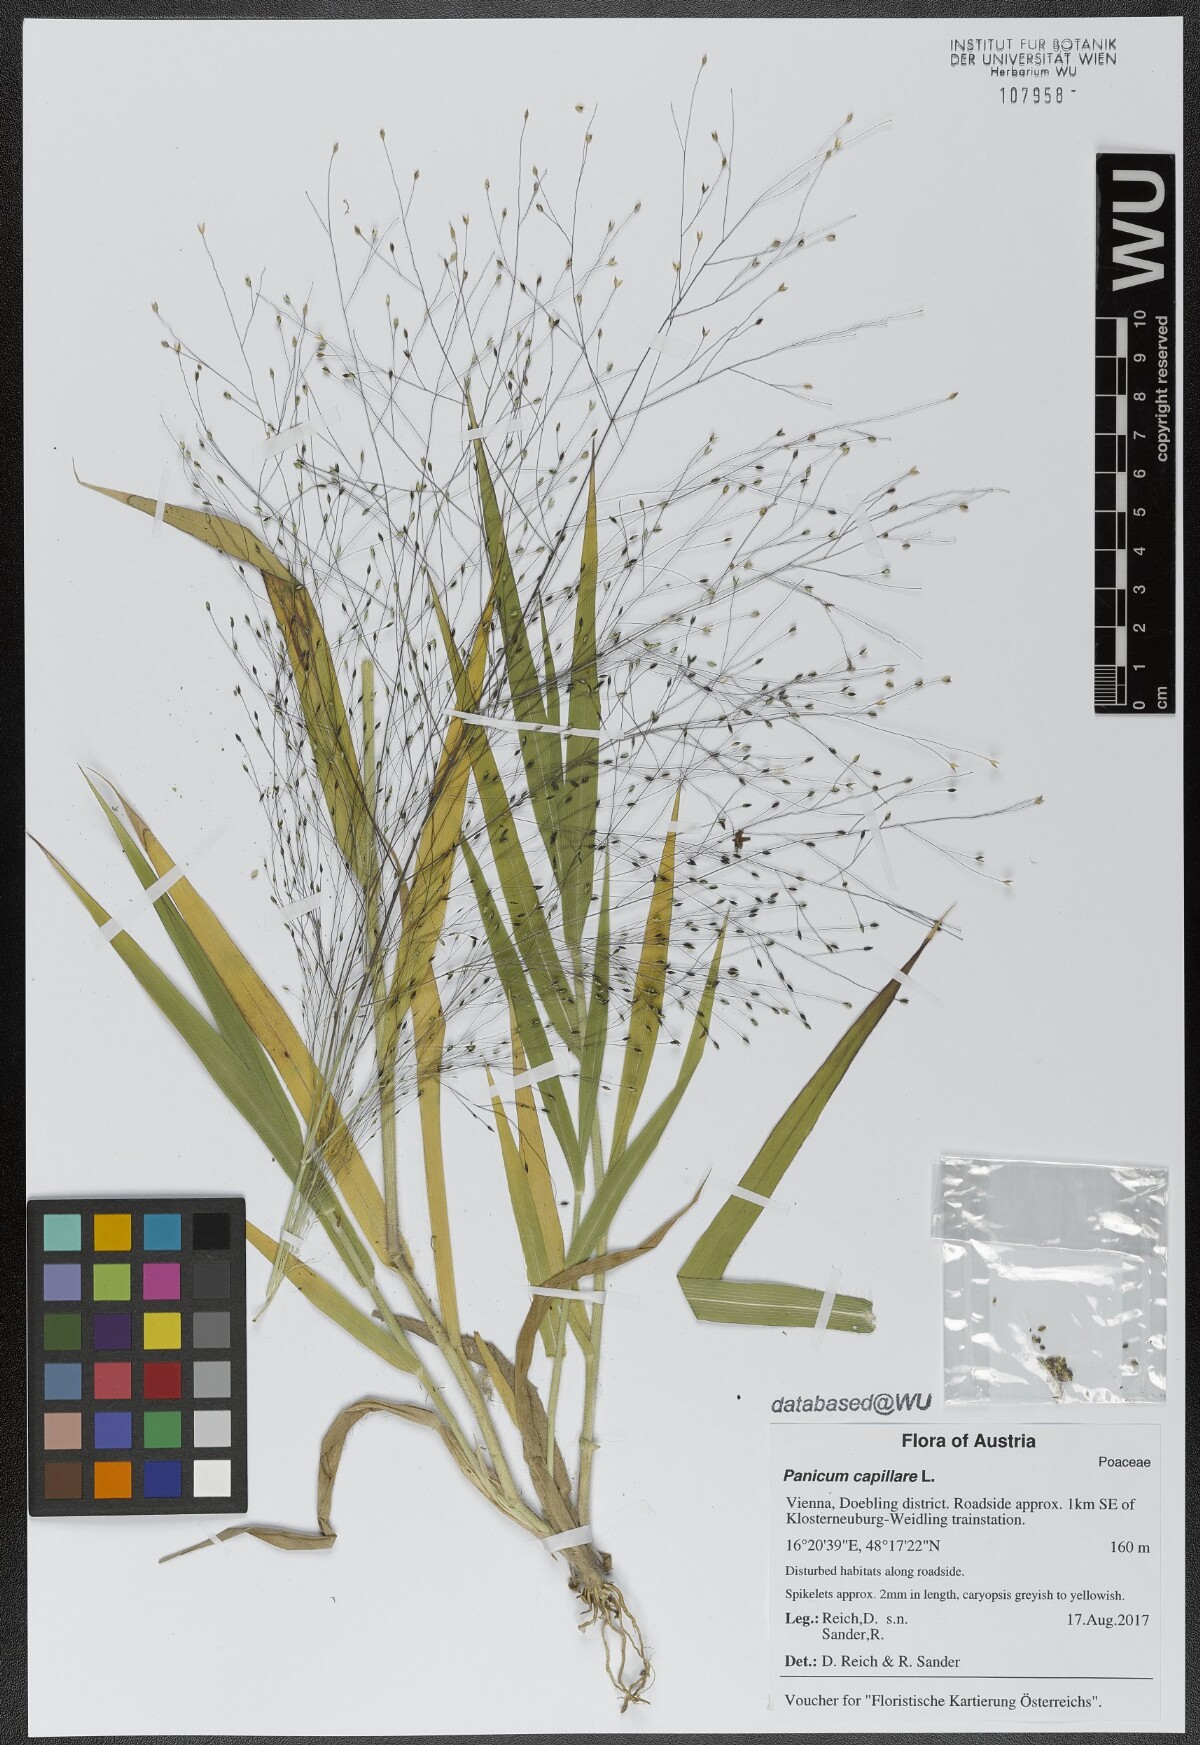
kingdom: Plantae
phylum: Tracheophyta
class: Liliopsida
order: Poales
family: Poaceae
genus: Panicum
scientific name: Panicum capillare
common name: Witch-grass
